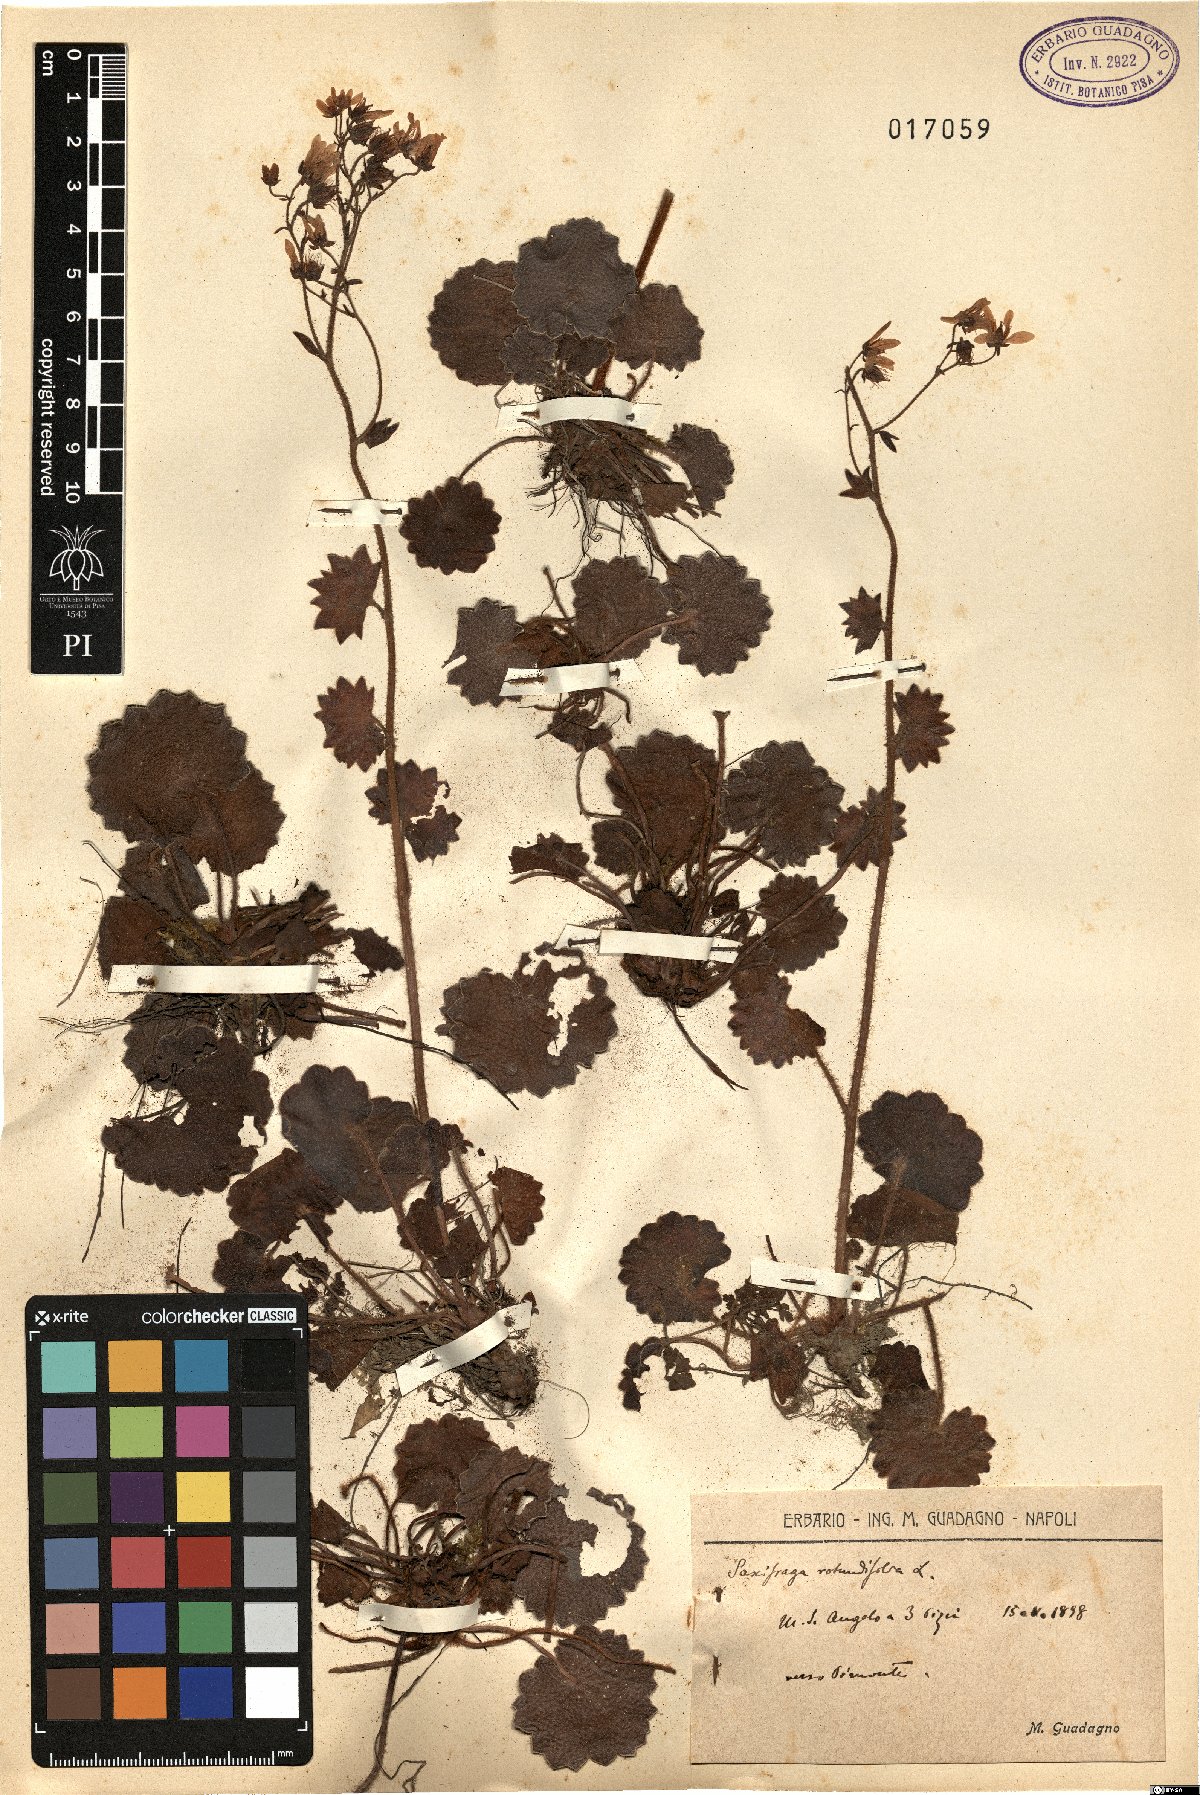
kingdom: Plantae
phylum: Tracheophyta
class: Magnoliopsida
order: Saxifragales
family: Saxifragaceae
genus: Saxifraga
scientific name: Saxifraga rotundifolia
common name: Round-leaved saxifrage
